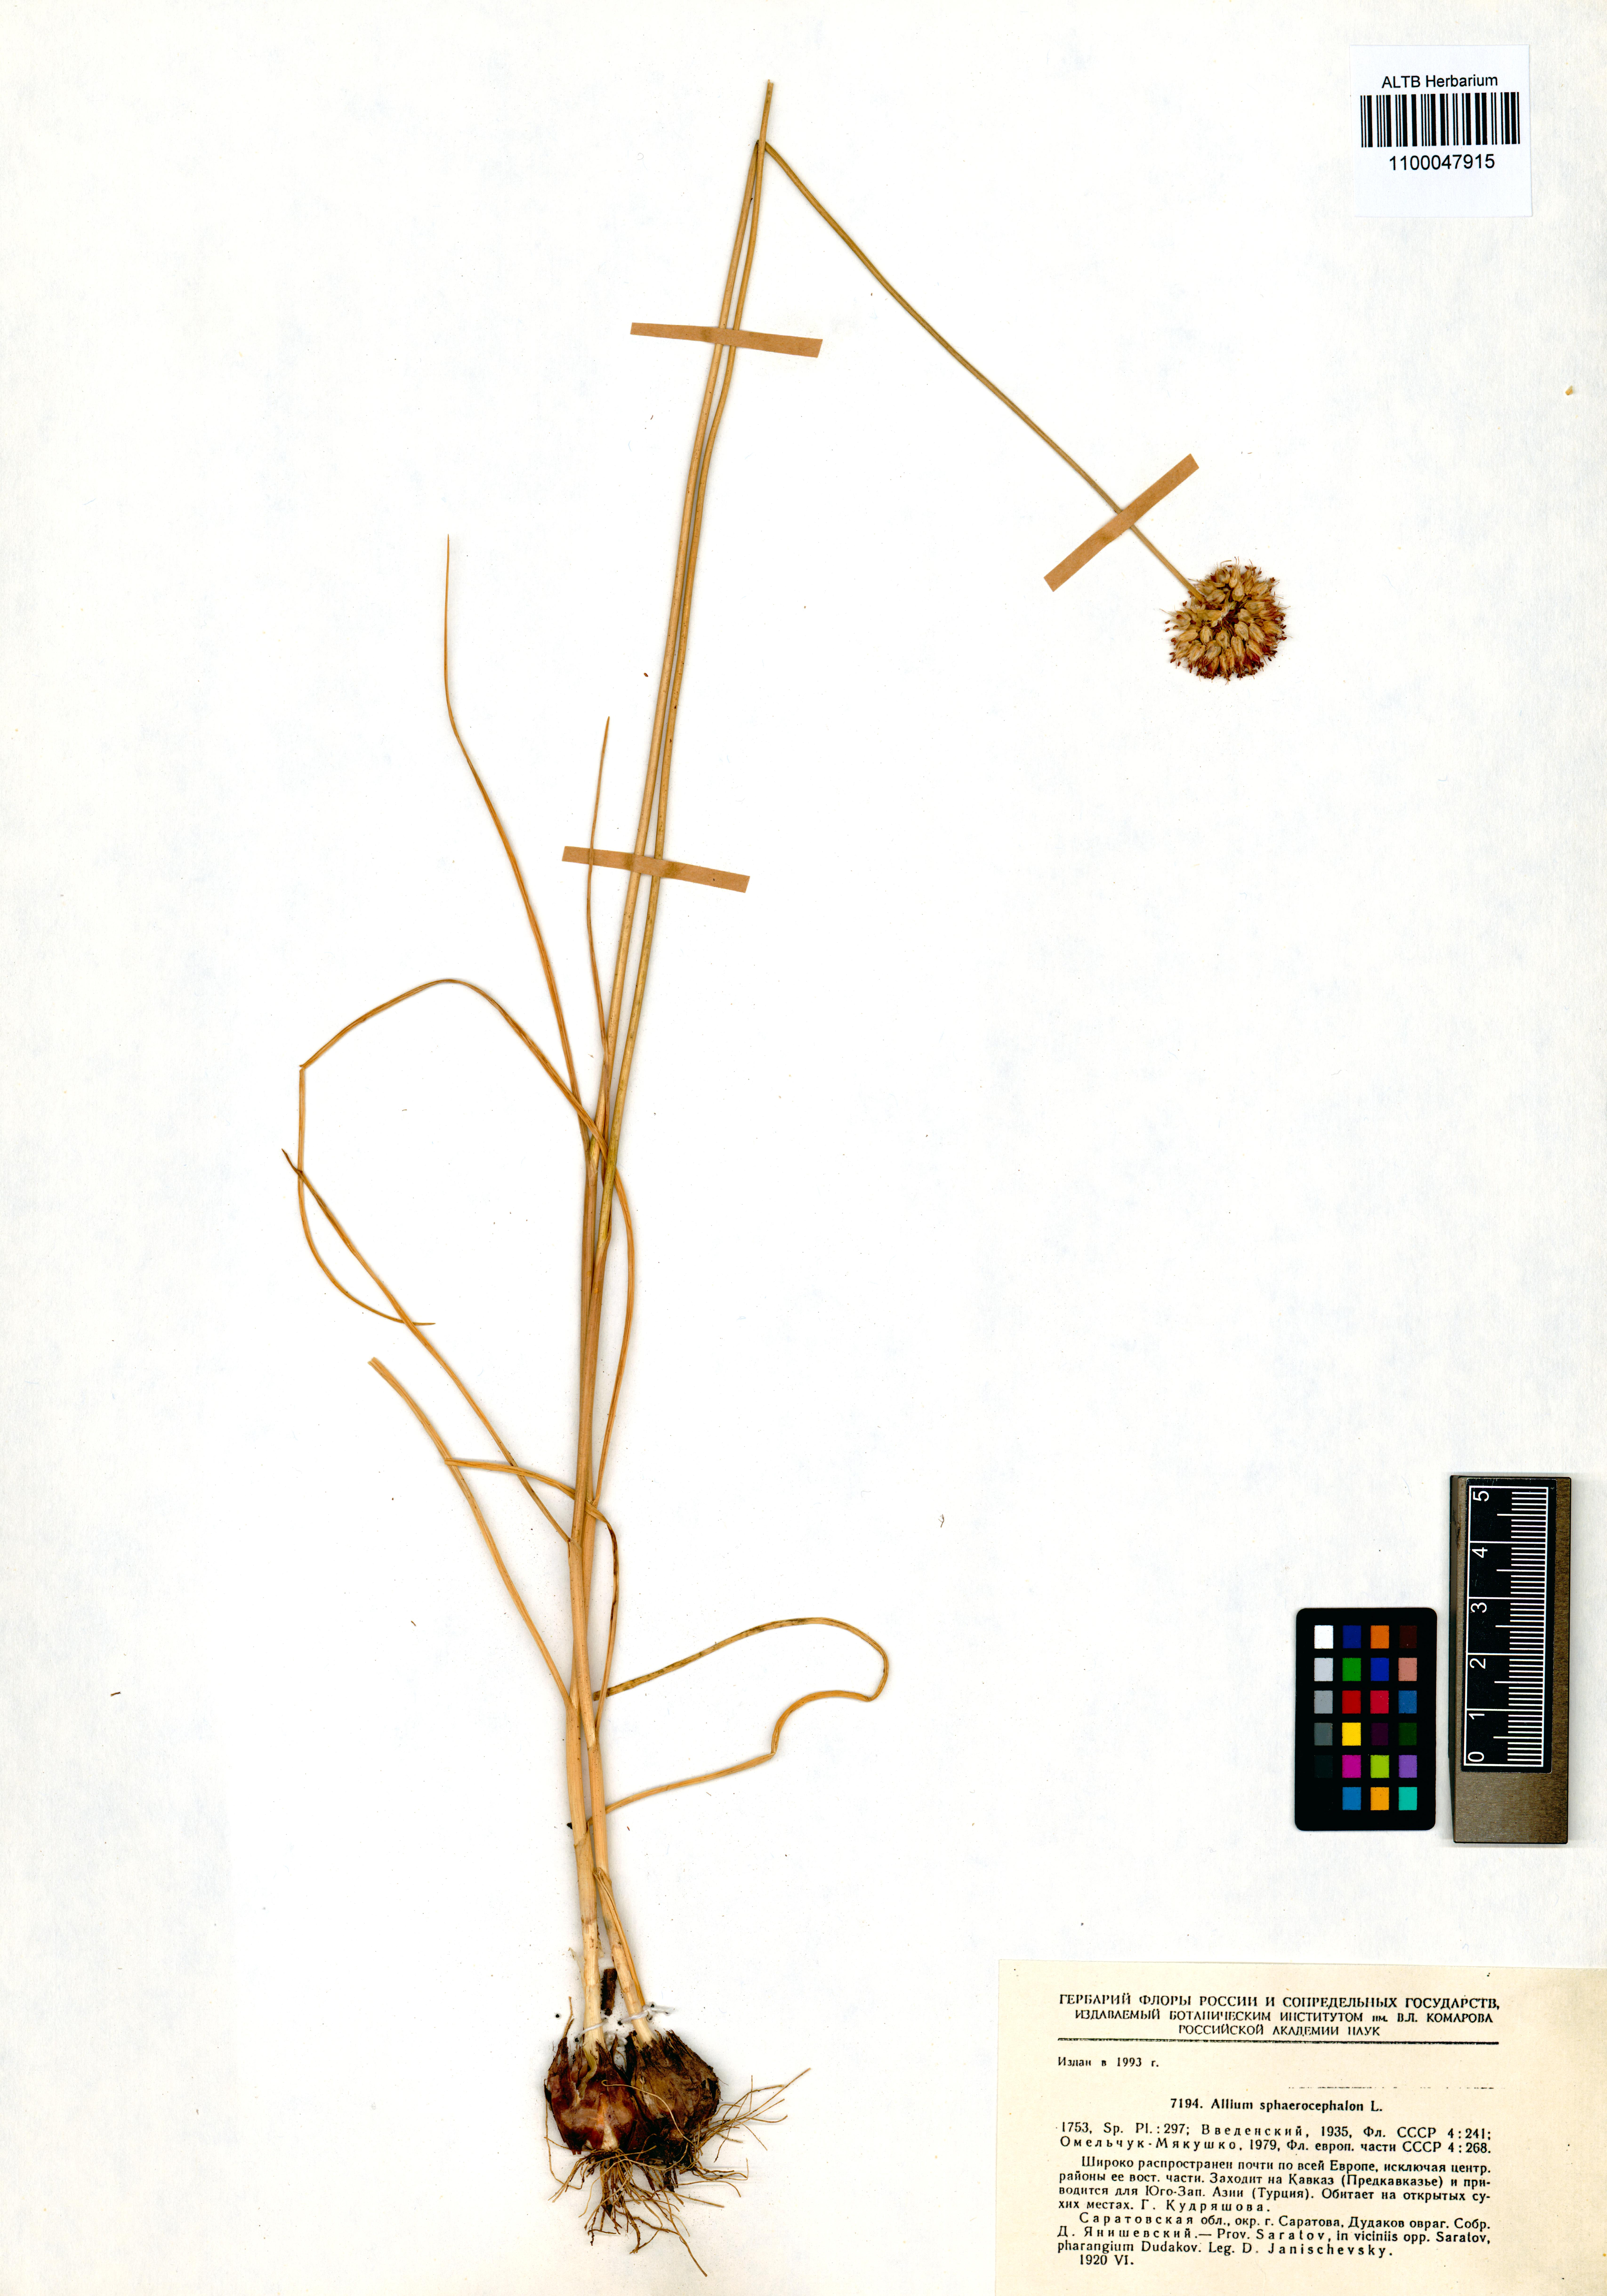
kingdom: Plantae
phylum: Tracheophyta
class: Liliopsida
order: Asparagales
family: Amaryllidaceae
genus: Allium
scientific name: Allium sphaerocephalon
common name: Round-headed leek
